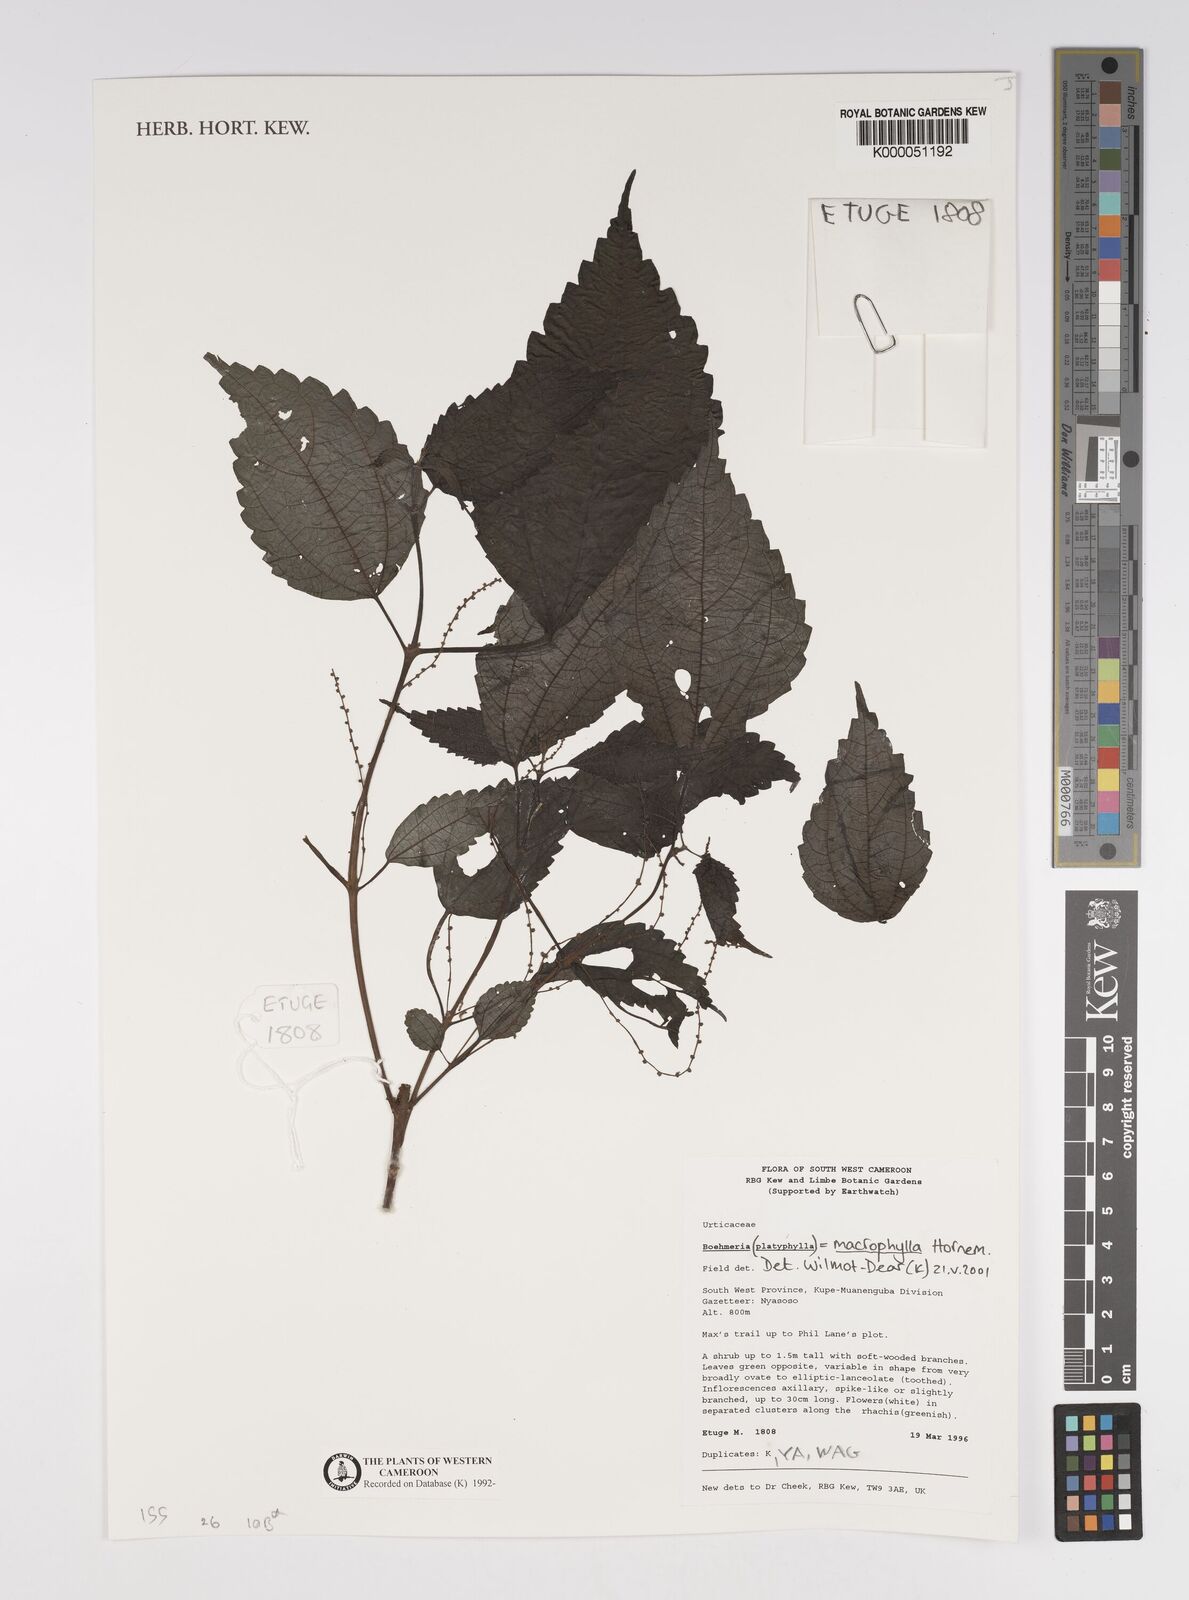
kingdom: Plantae
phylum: Tracheophyta
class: Magnoliopsida
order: Rosales
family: Urticaceae
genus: Boehmeria
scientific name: Boehmeria virgata
